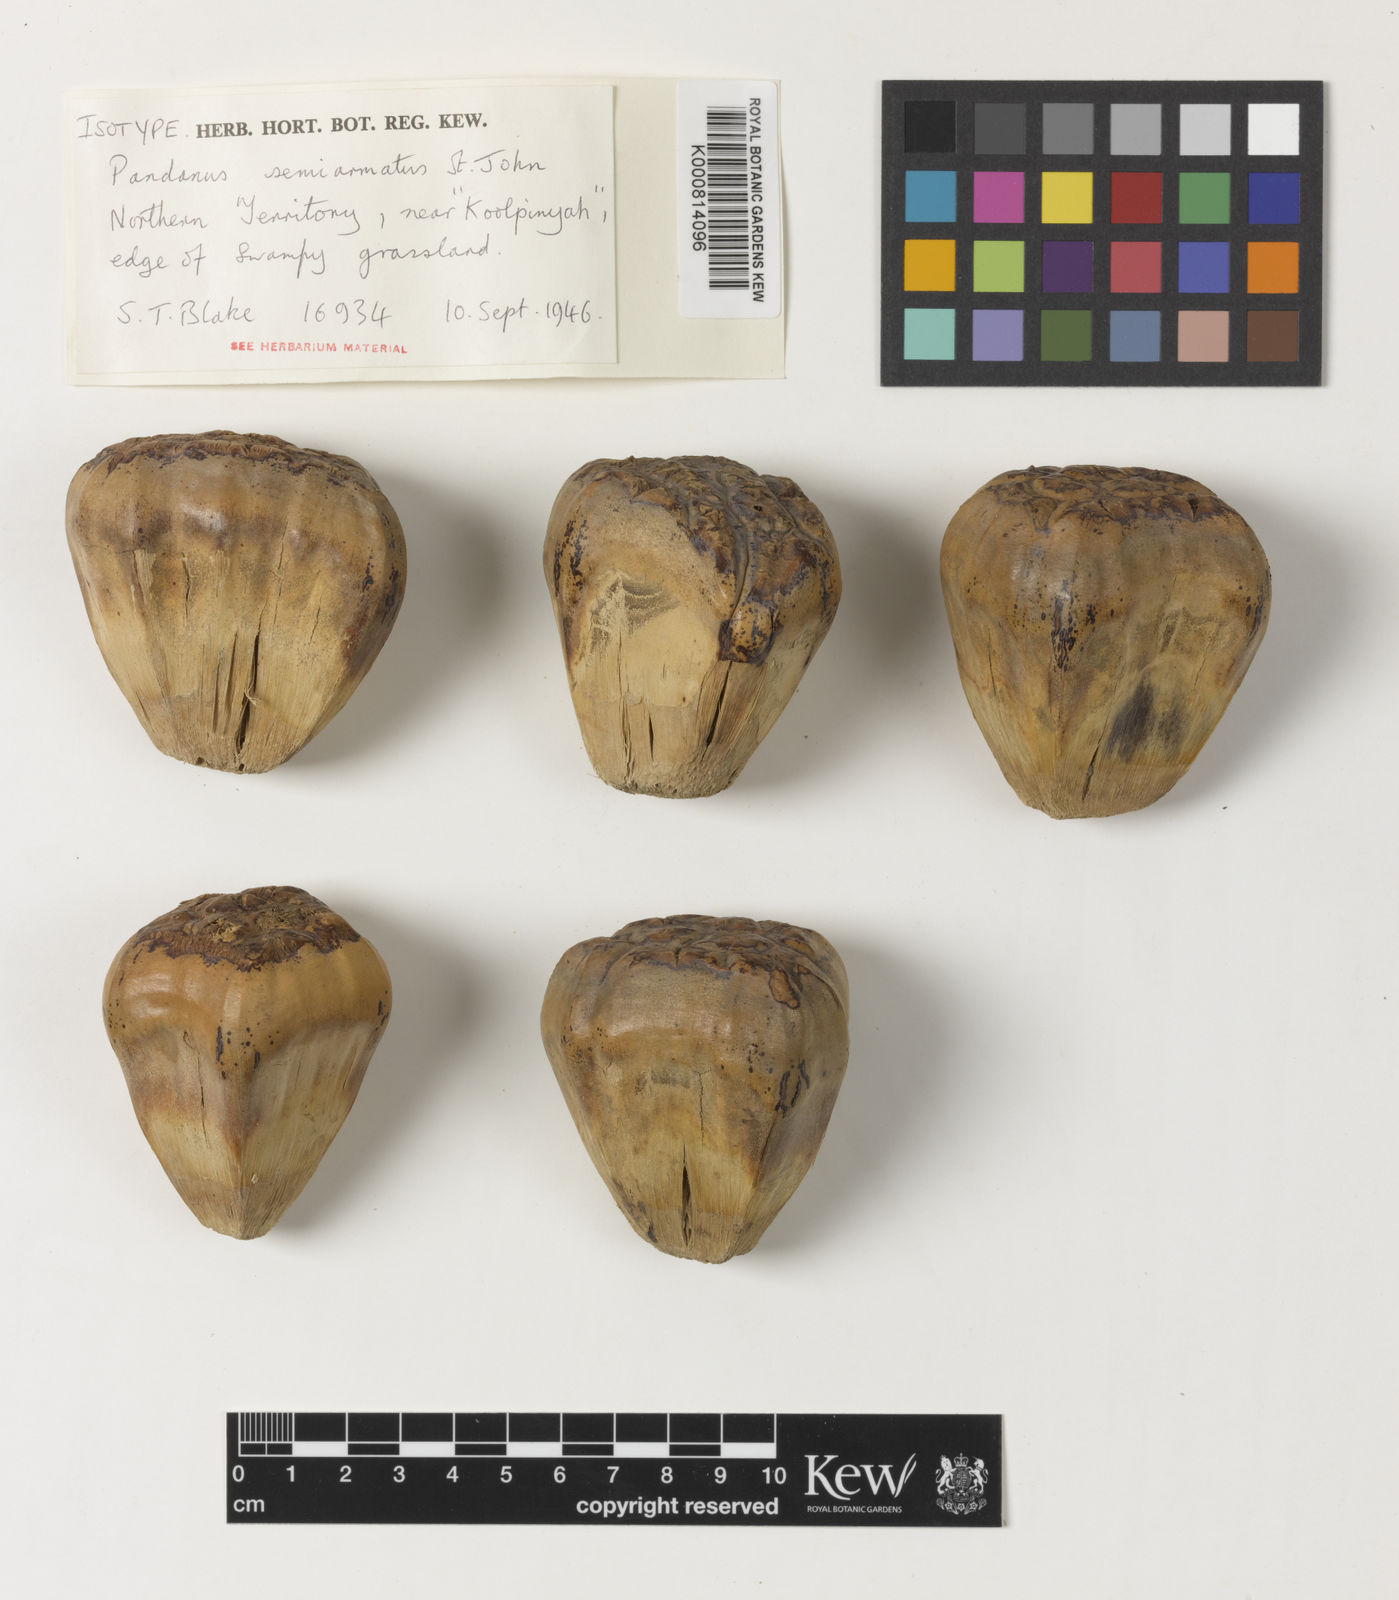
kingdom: Plantae
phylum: Tracheophyta
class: Liliopsida
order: Pandanales
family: Pandanaceae
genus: Pandanus
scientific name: Pandanus semiarmatus
